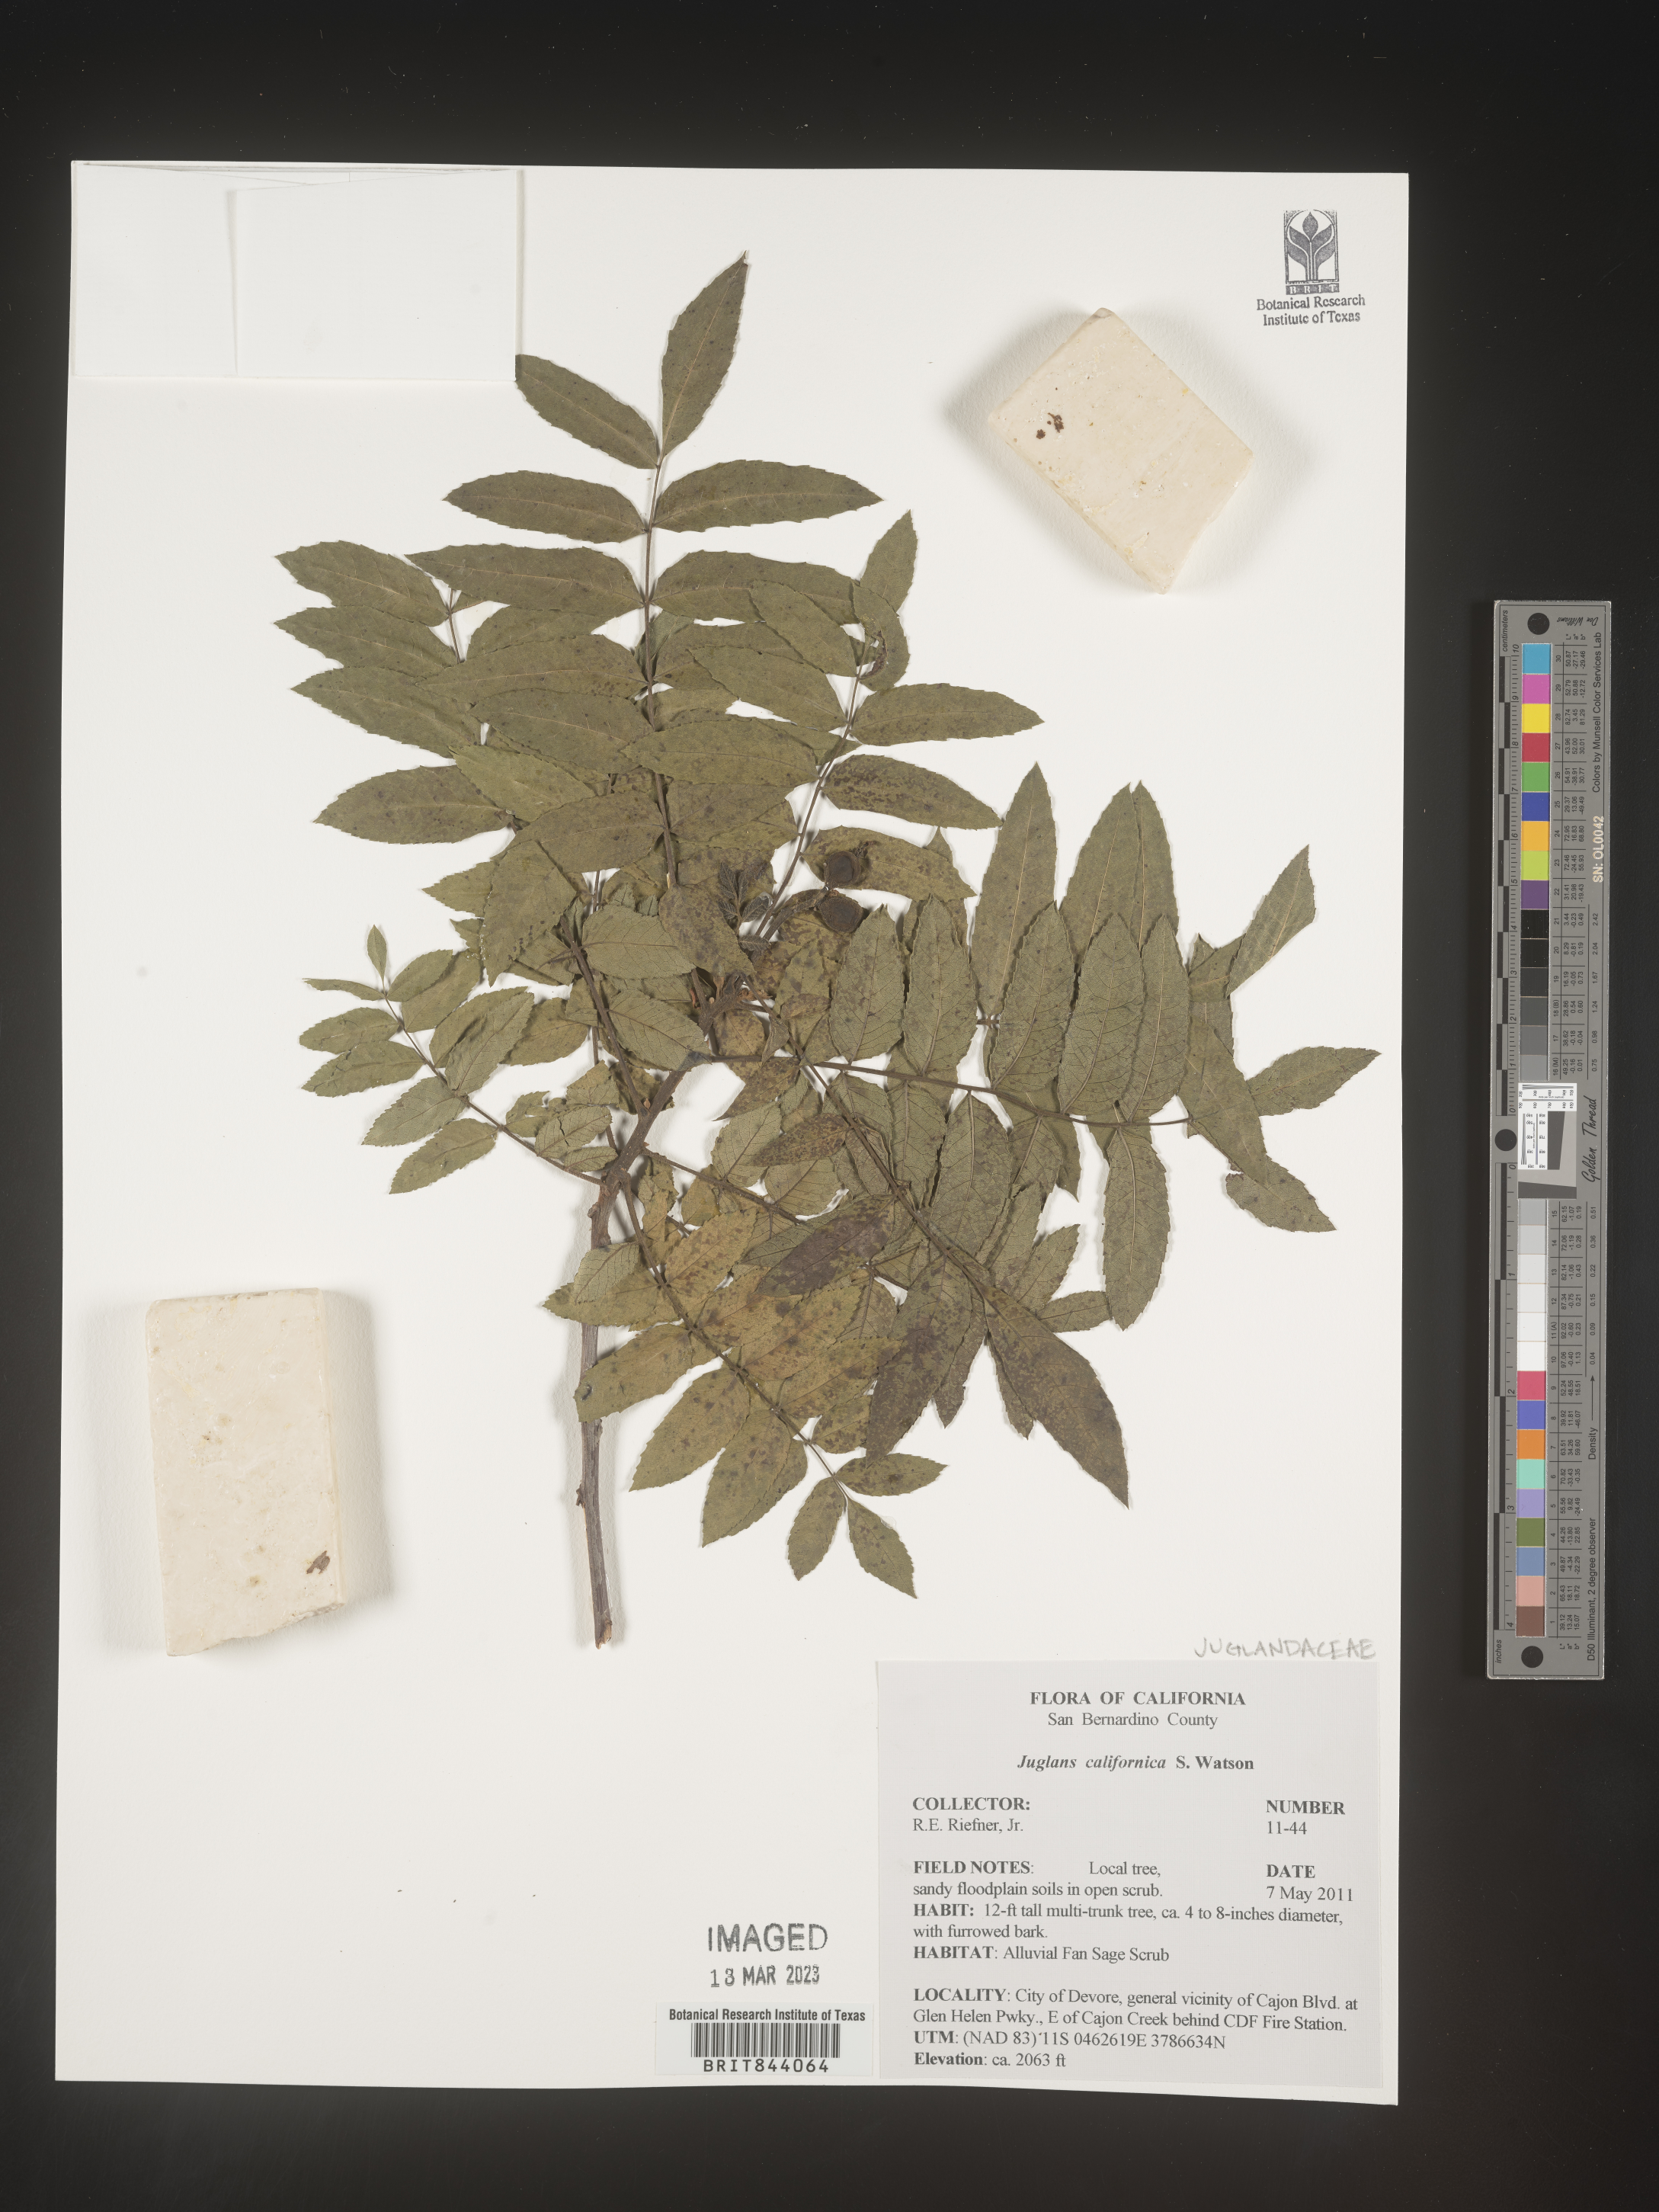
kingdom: Plantae
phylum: Tracheophyta
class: Magnoliopsida
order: Fagales
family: Juglandaceae
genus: Juglans
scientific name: Juglans californica
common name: Southern california black walnut
